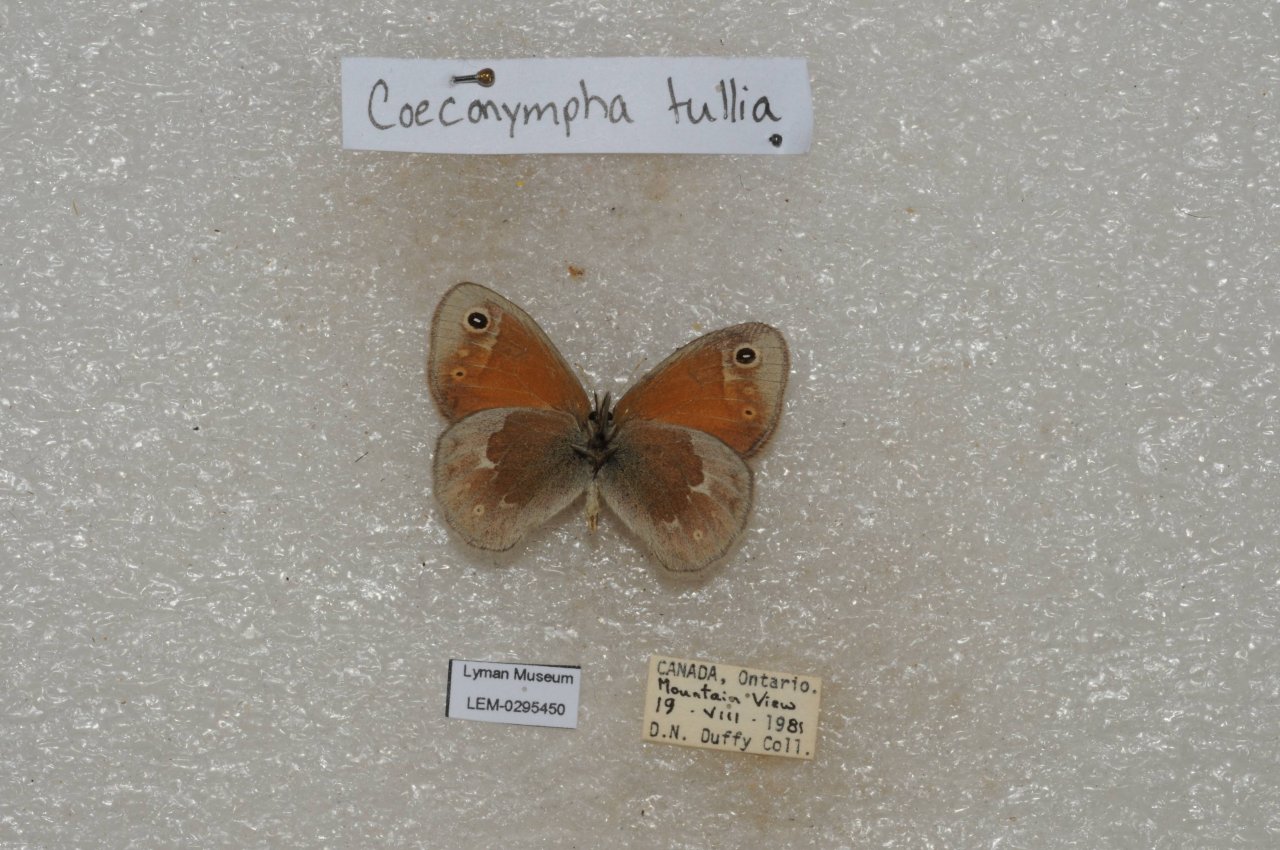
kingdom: Animalia
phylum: Arthropoda
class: Insecta
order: Lepidoptera
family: Nymphalidae
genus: Coenonympha
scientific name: Coenonympha tullia
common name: Large Heath
